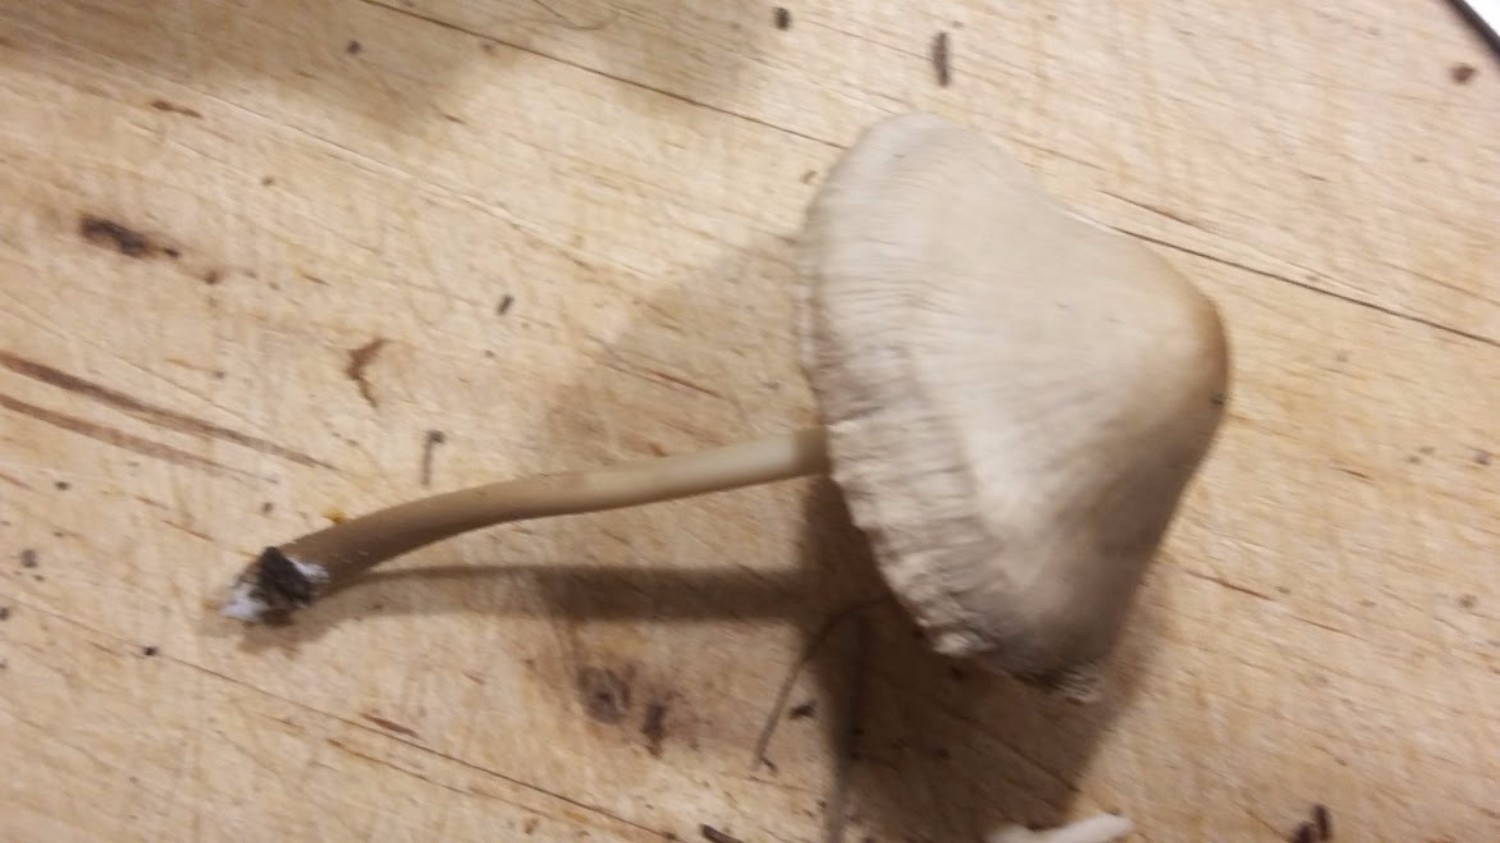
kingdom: Fungi
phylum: Basidiomycota
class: Agaricomycetes
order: Agaricales
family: Mycenaceae
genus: Mycena
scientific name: Mycena galericulata
